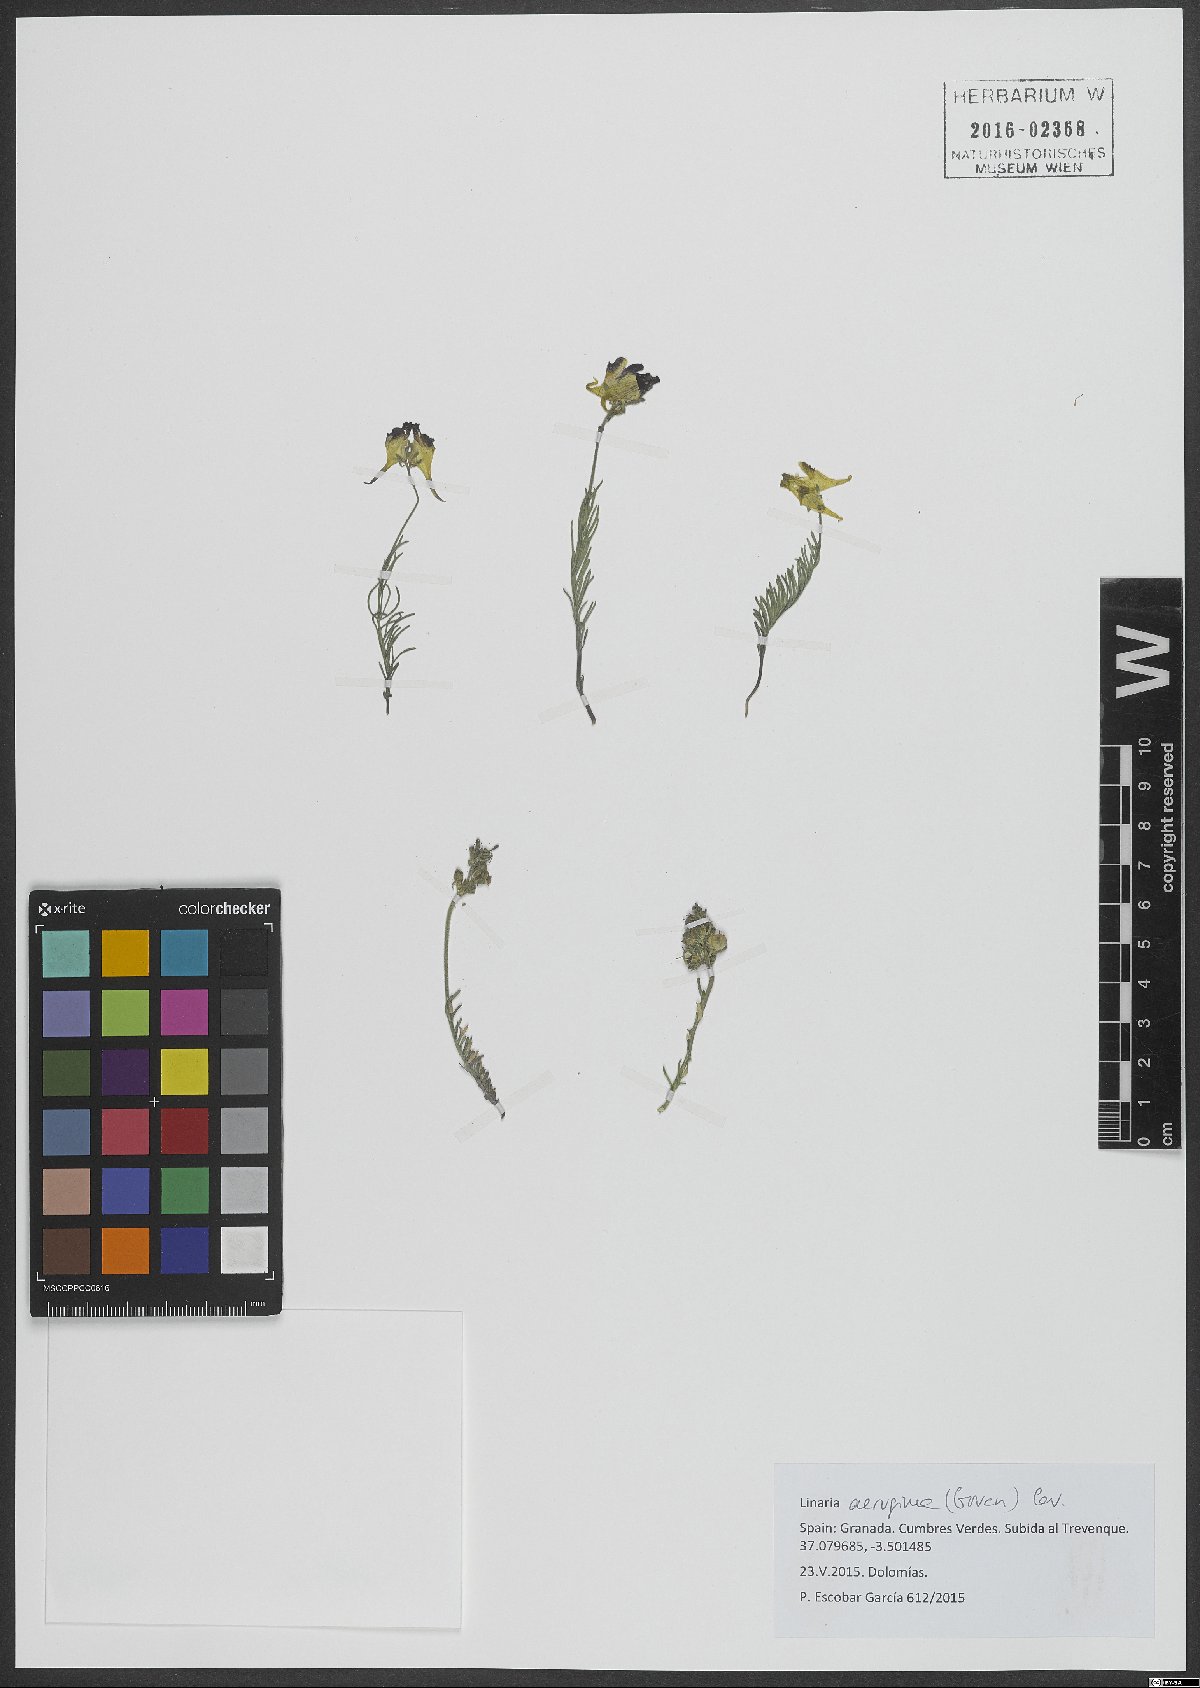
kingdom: Plantae
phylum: Tracheophyta
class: Magnoliopsida
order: Lamiales
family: Plantaginaceae
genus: Linaria
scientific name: Linaria aeruginea
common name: Roadside toadflax
